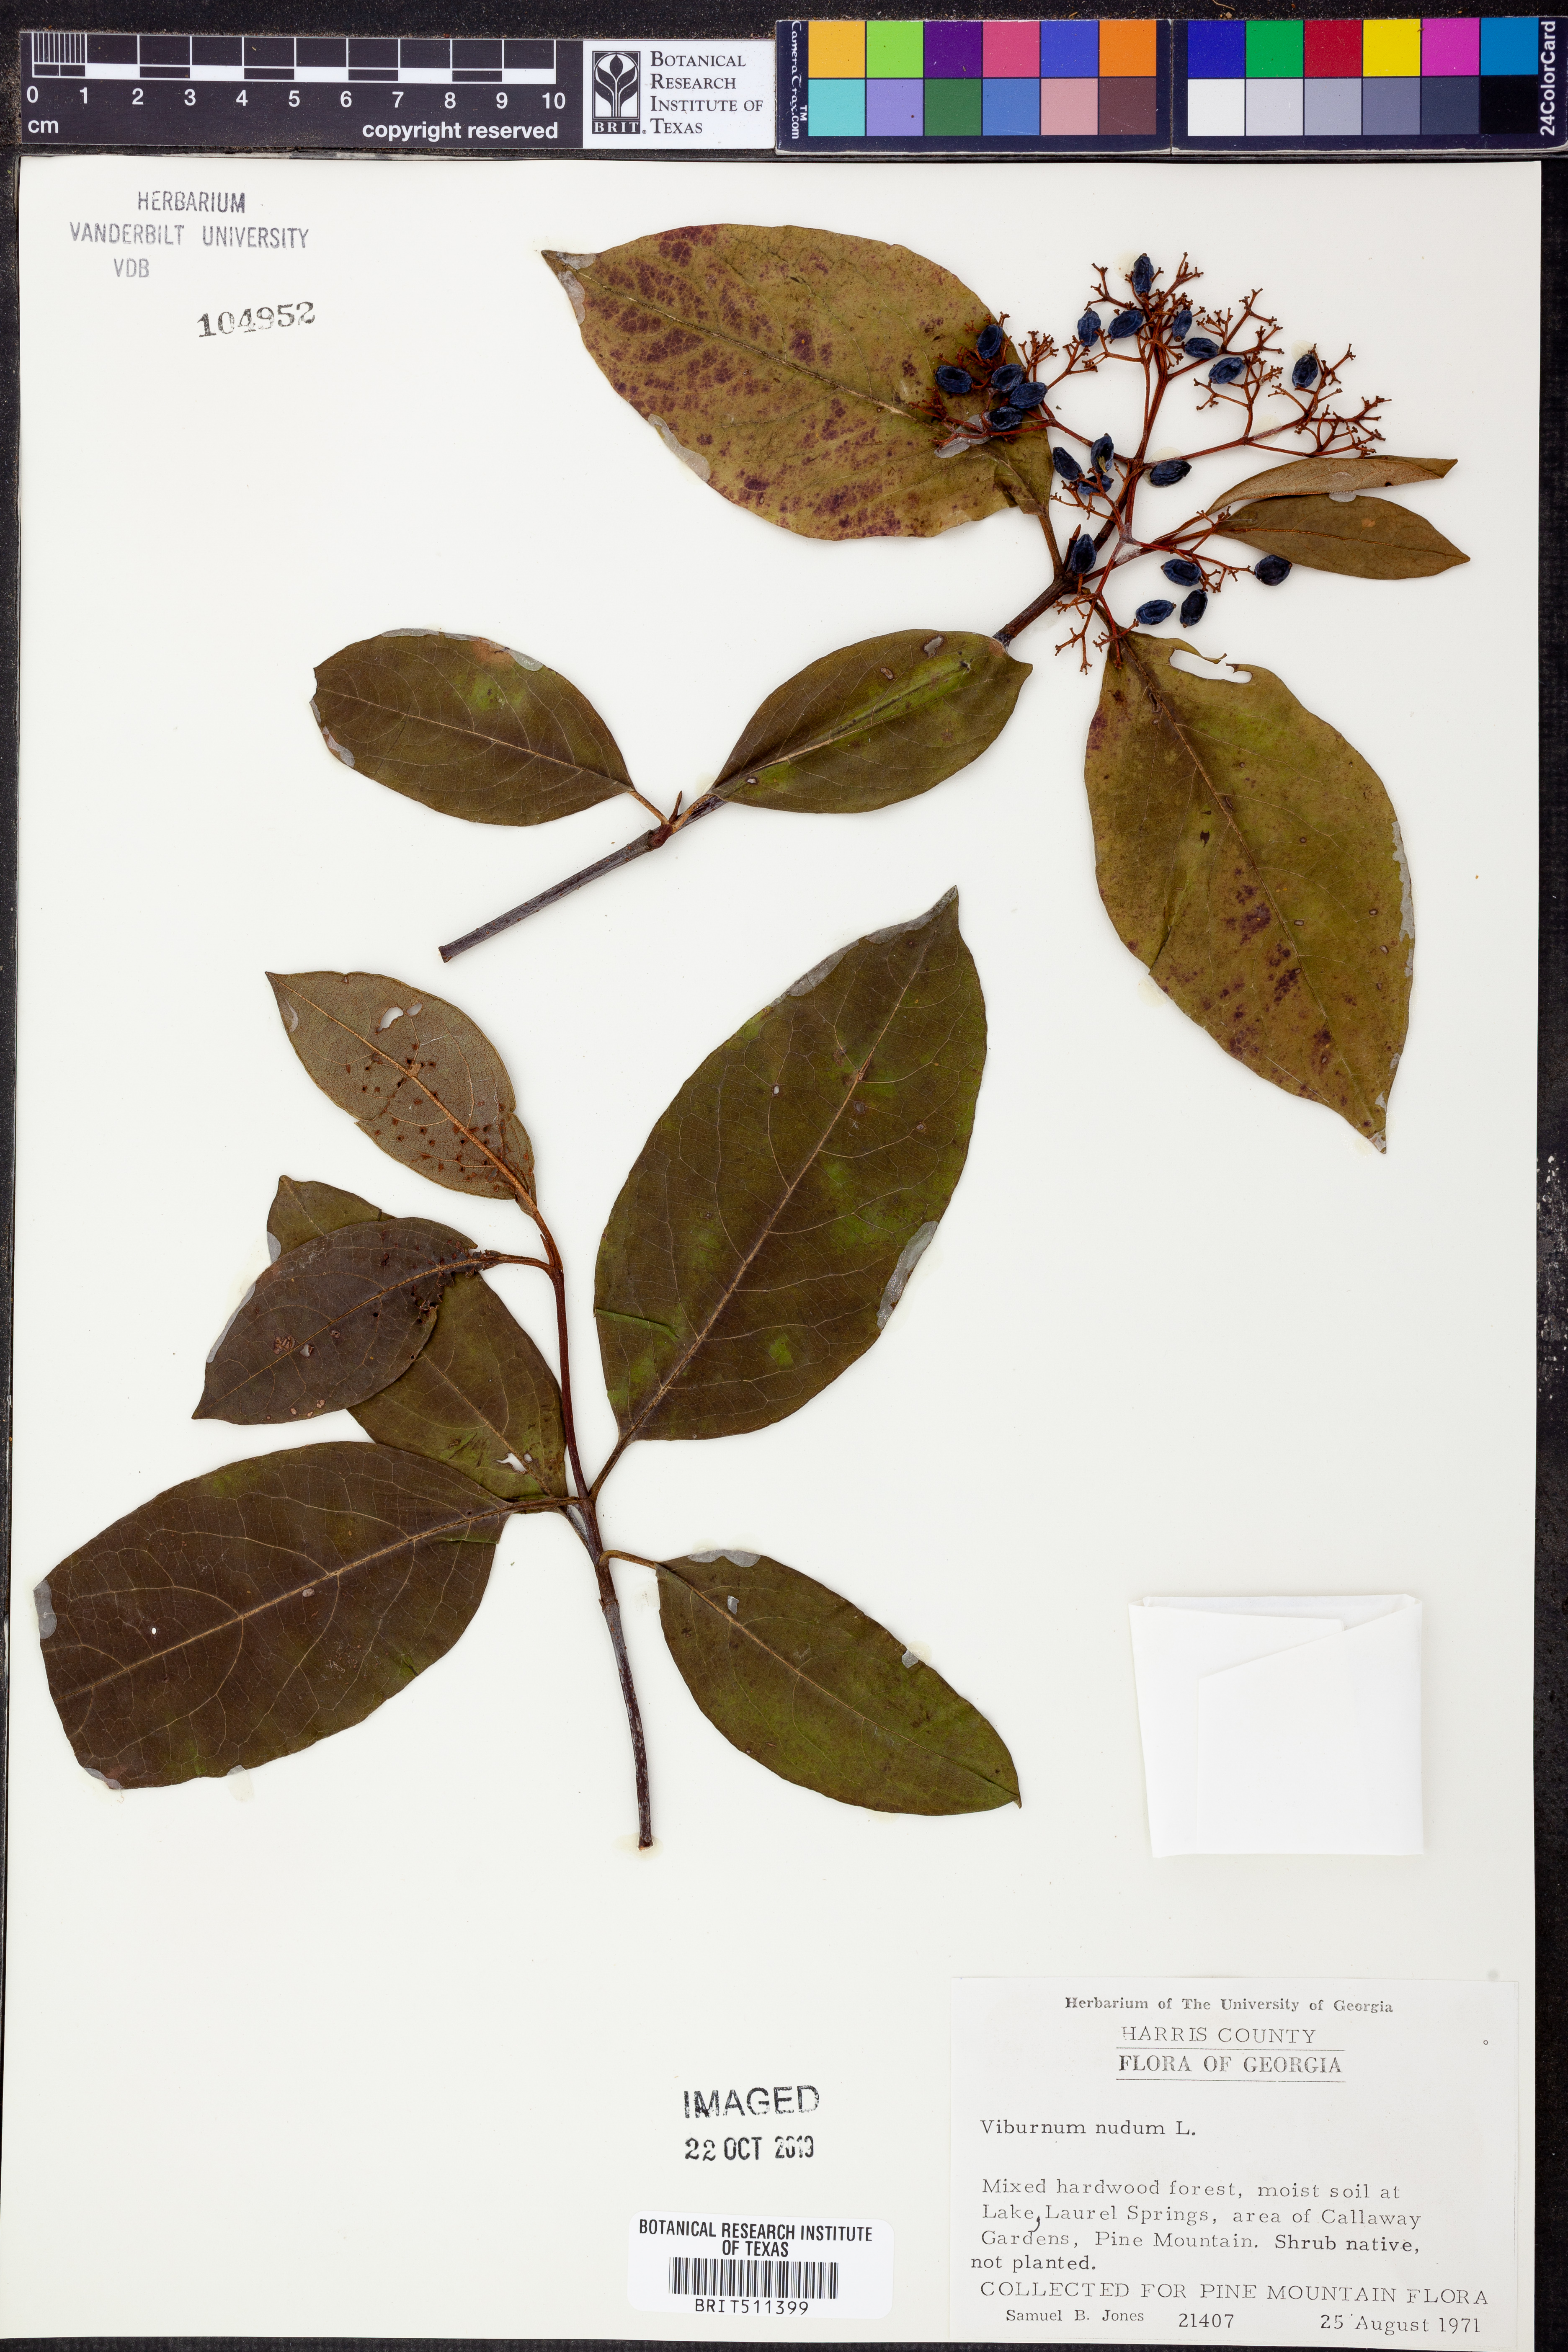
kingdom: Plantae
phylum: Tracheophyta
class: Magnoliopsida
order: Dipsacales
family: Viburnaceae
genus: Viburnum
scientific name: Viburnum nudum
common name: Possum haw
